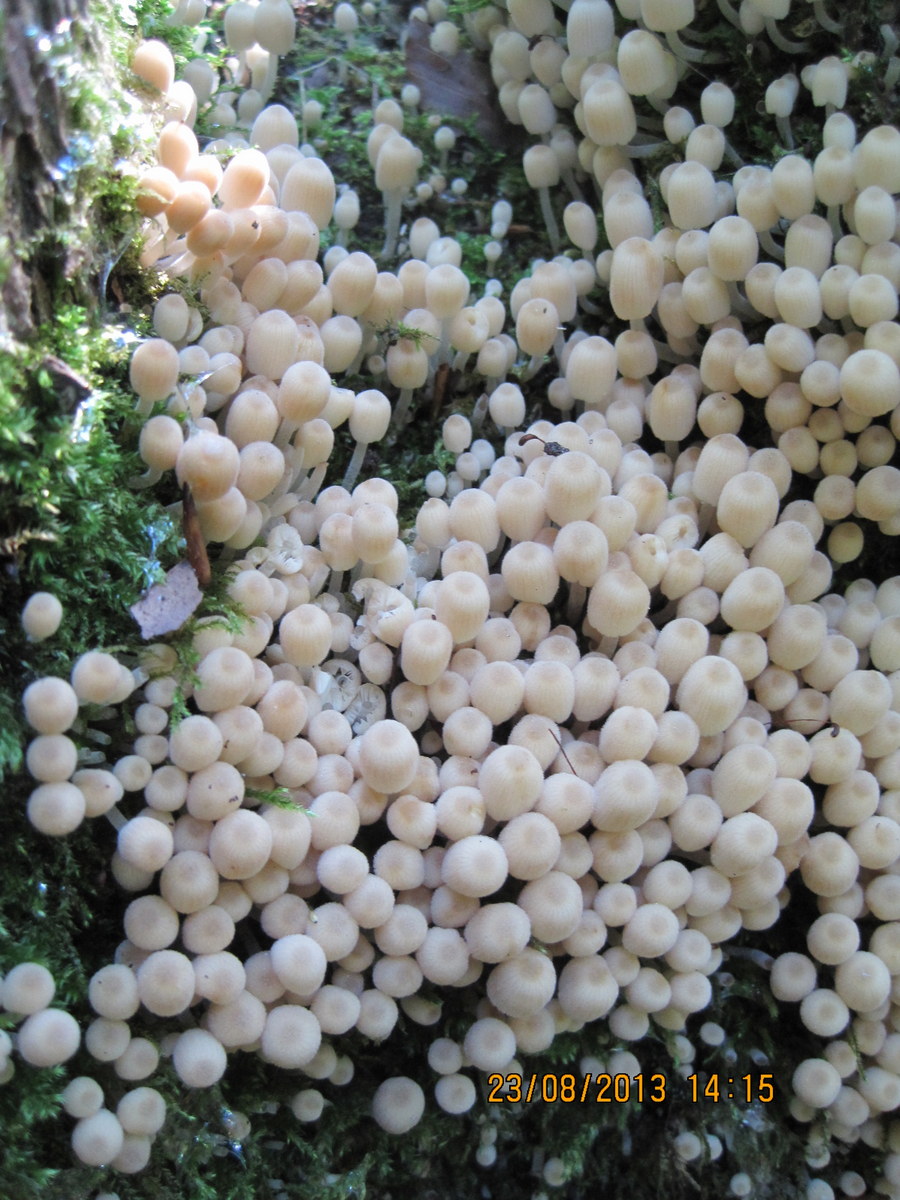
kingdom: Fungi
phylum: Basidiomycota
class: Agaricomycetes
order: Agaricales
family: Psathyrellaceae
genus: Coprinellus
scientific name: Coprinellus disseminatus
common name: bredsået blækhat
